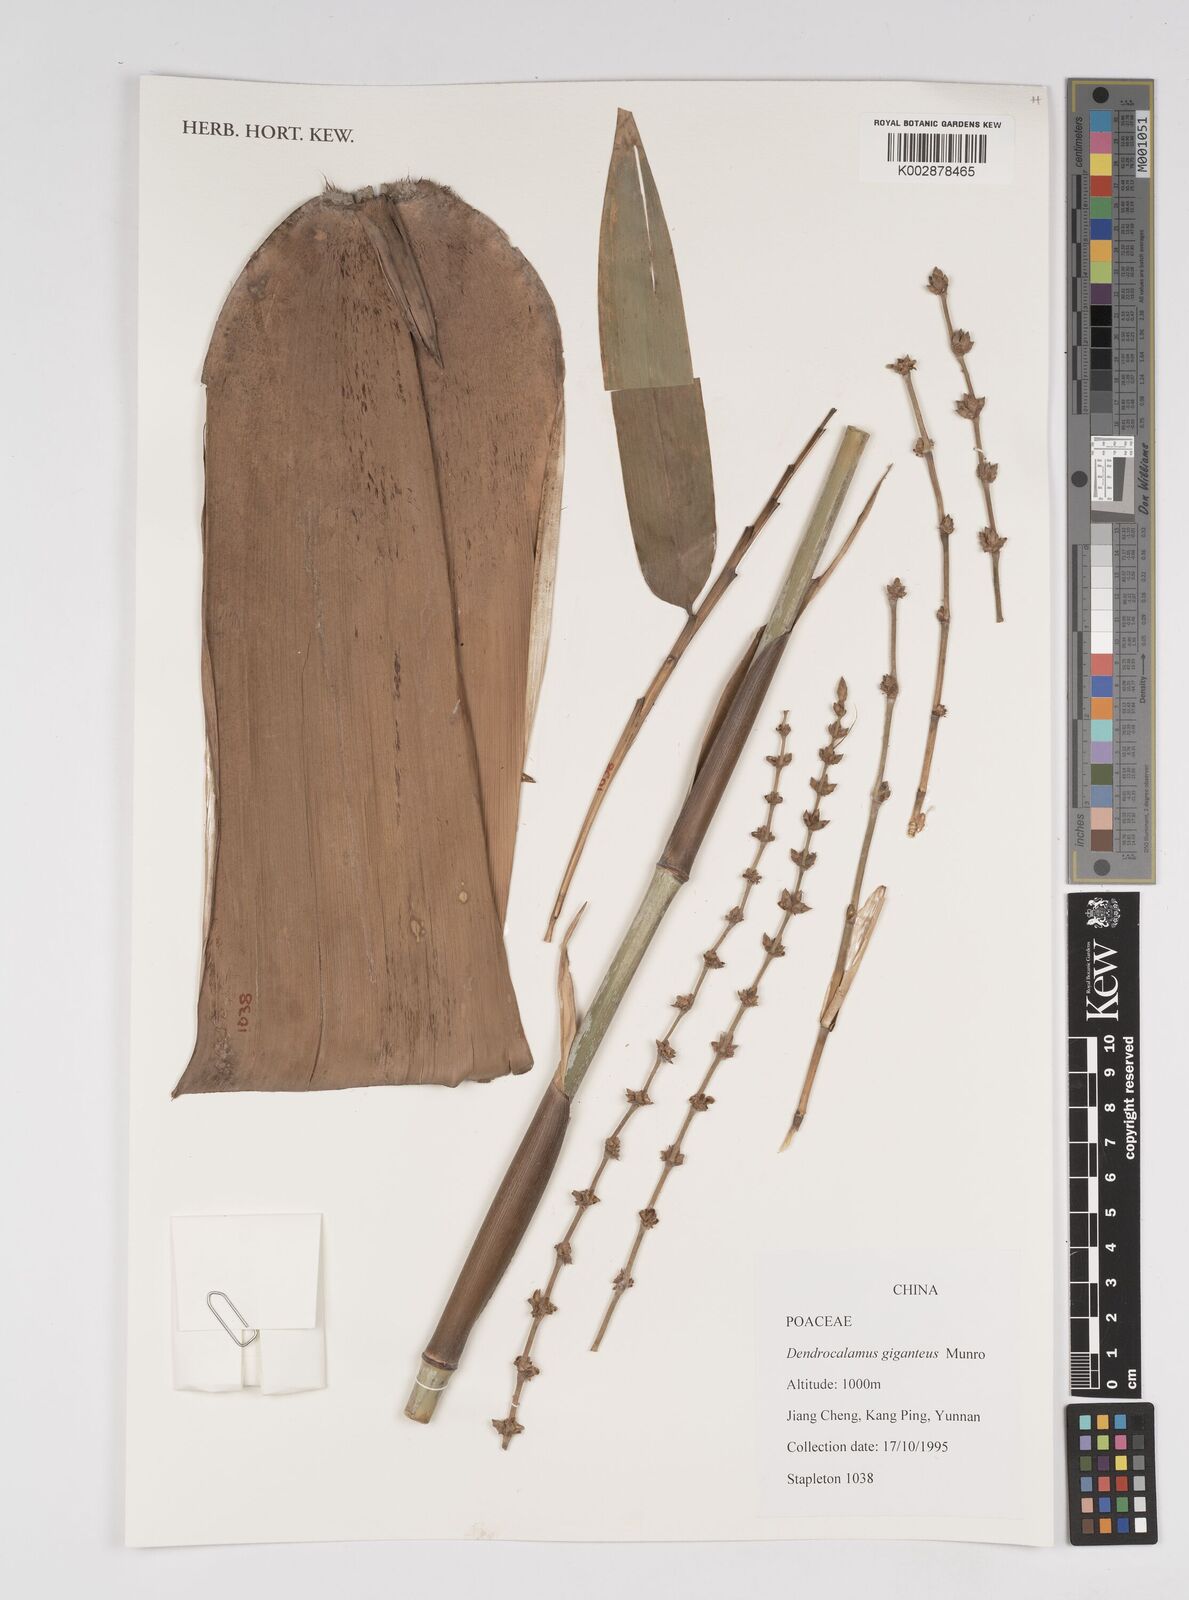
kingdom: Plantae
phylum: Tracheophyta
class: Liliopsida
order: Poales
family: Poaceae
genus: Dendrocalamus
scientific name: Dendrocalamus giganteus
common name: Giant bamboo
